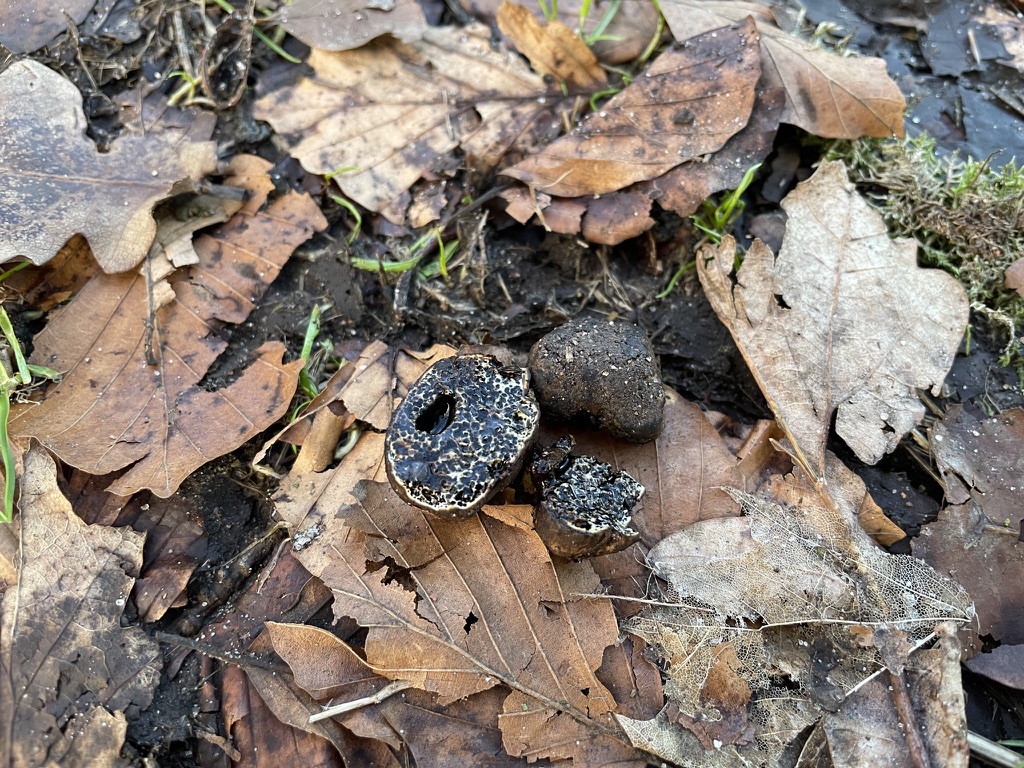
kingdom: Fungi
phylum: Basidiomycota
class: Agaricomycetes
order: Boletales
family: Paxillaceae
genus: Melanogaster
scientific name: Melanogaster ambiguus
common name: lille slimtrøffel
